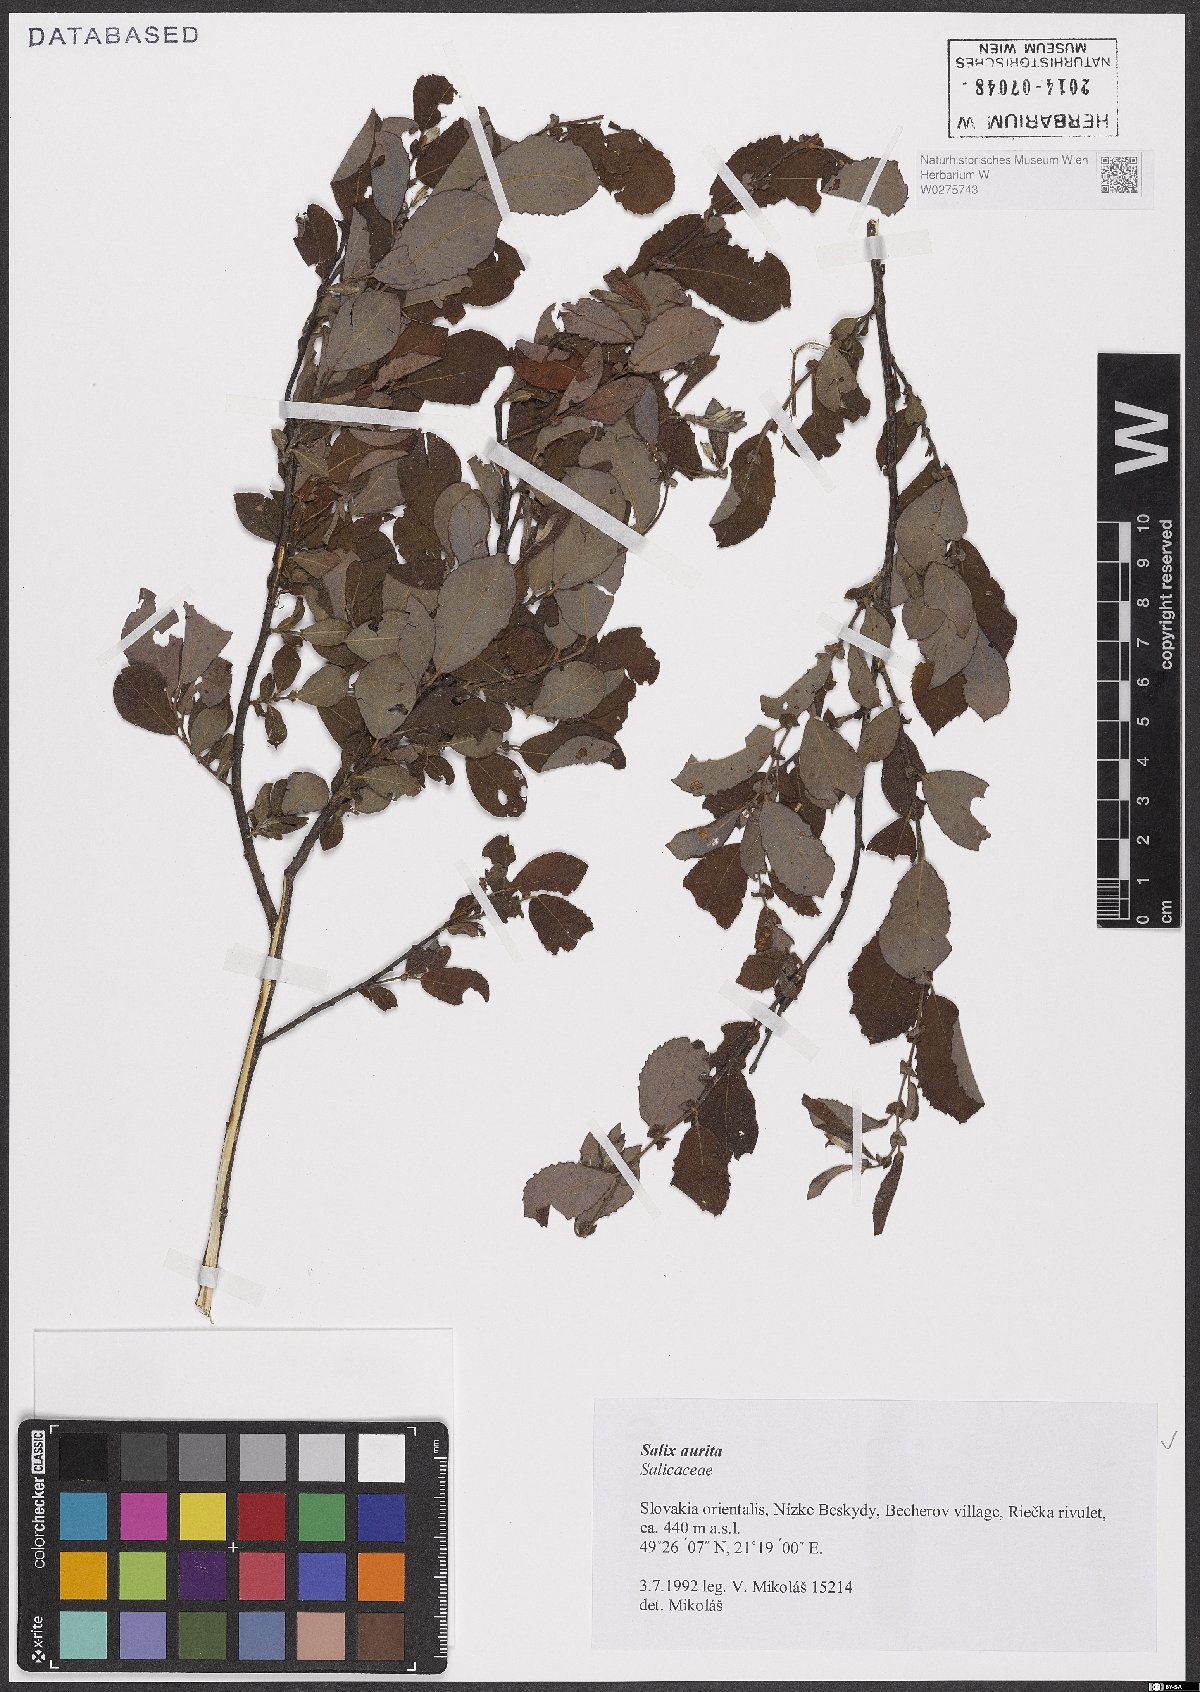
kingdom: Plantae
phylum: Tracheophyta
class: Magnoliopsida
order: Malpighiales
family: Salicaceae
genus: Salix
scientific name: Salix aurita
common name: Eared willow
